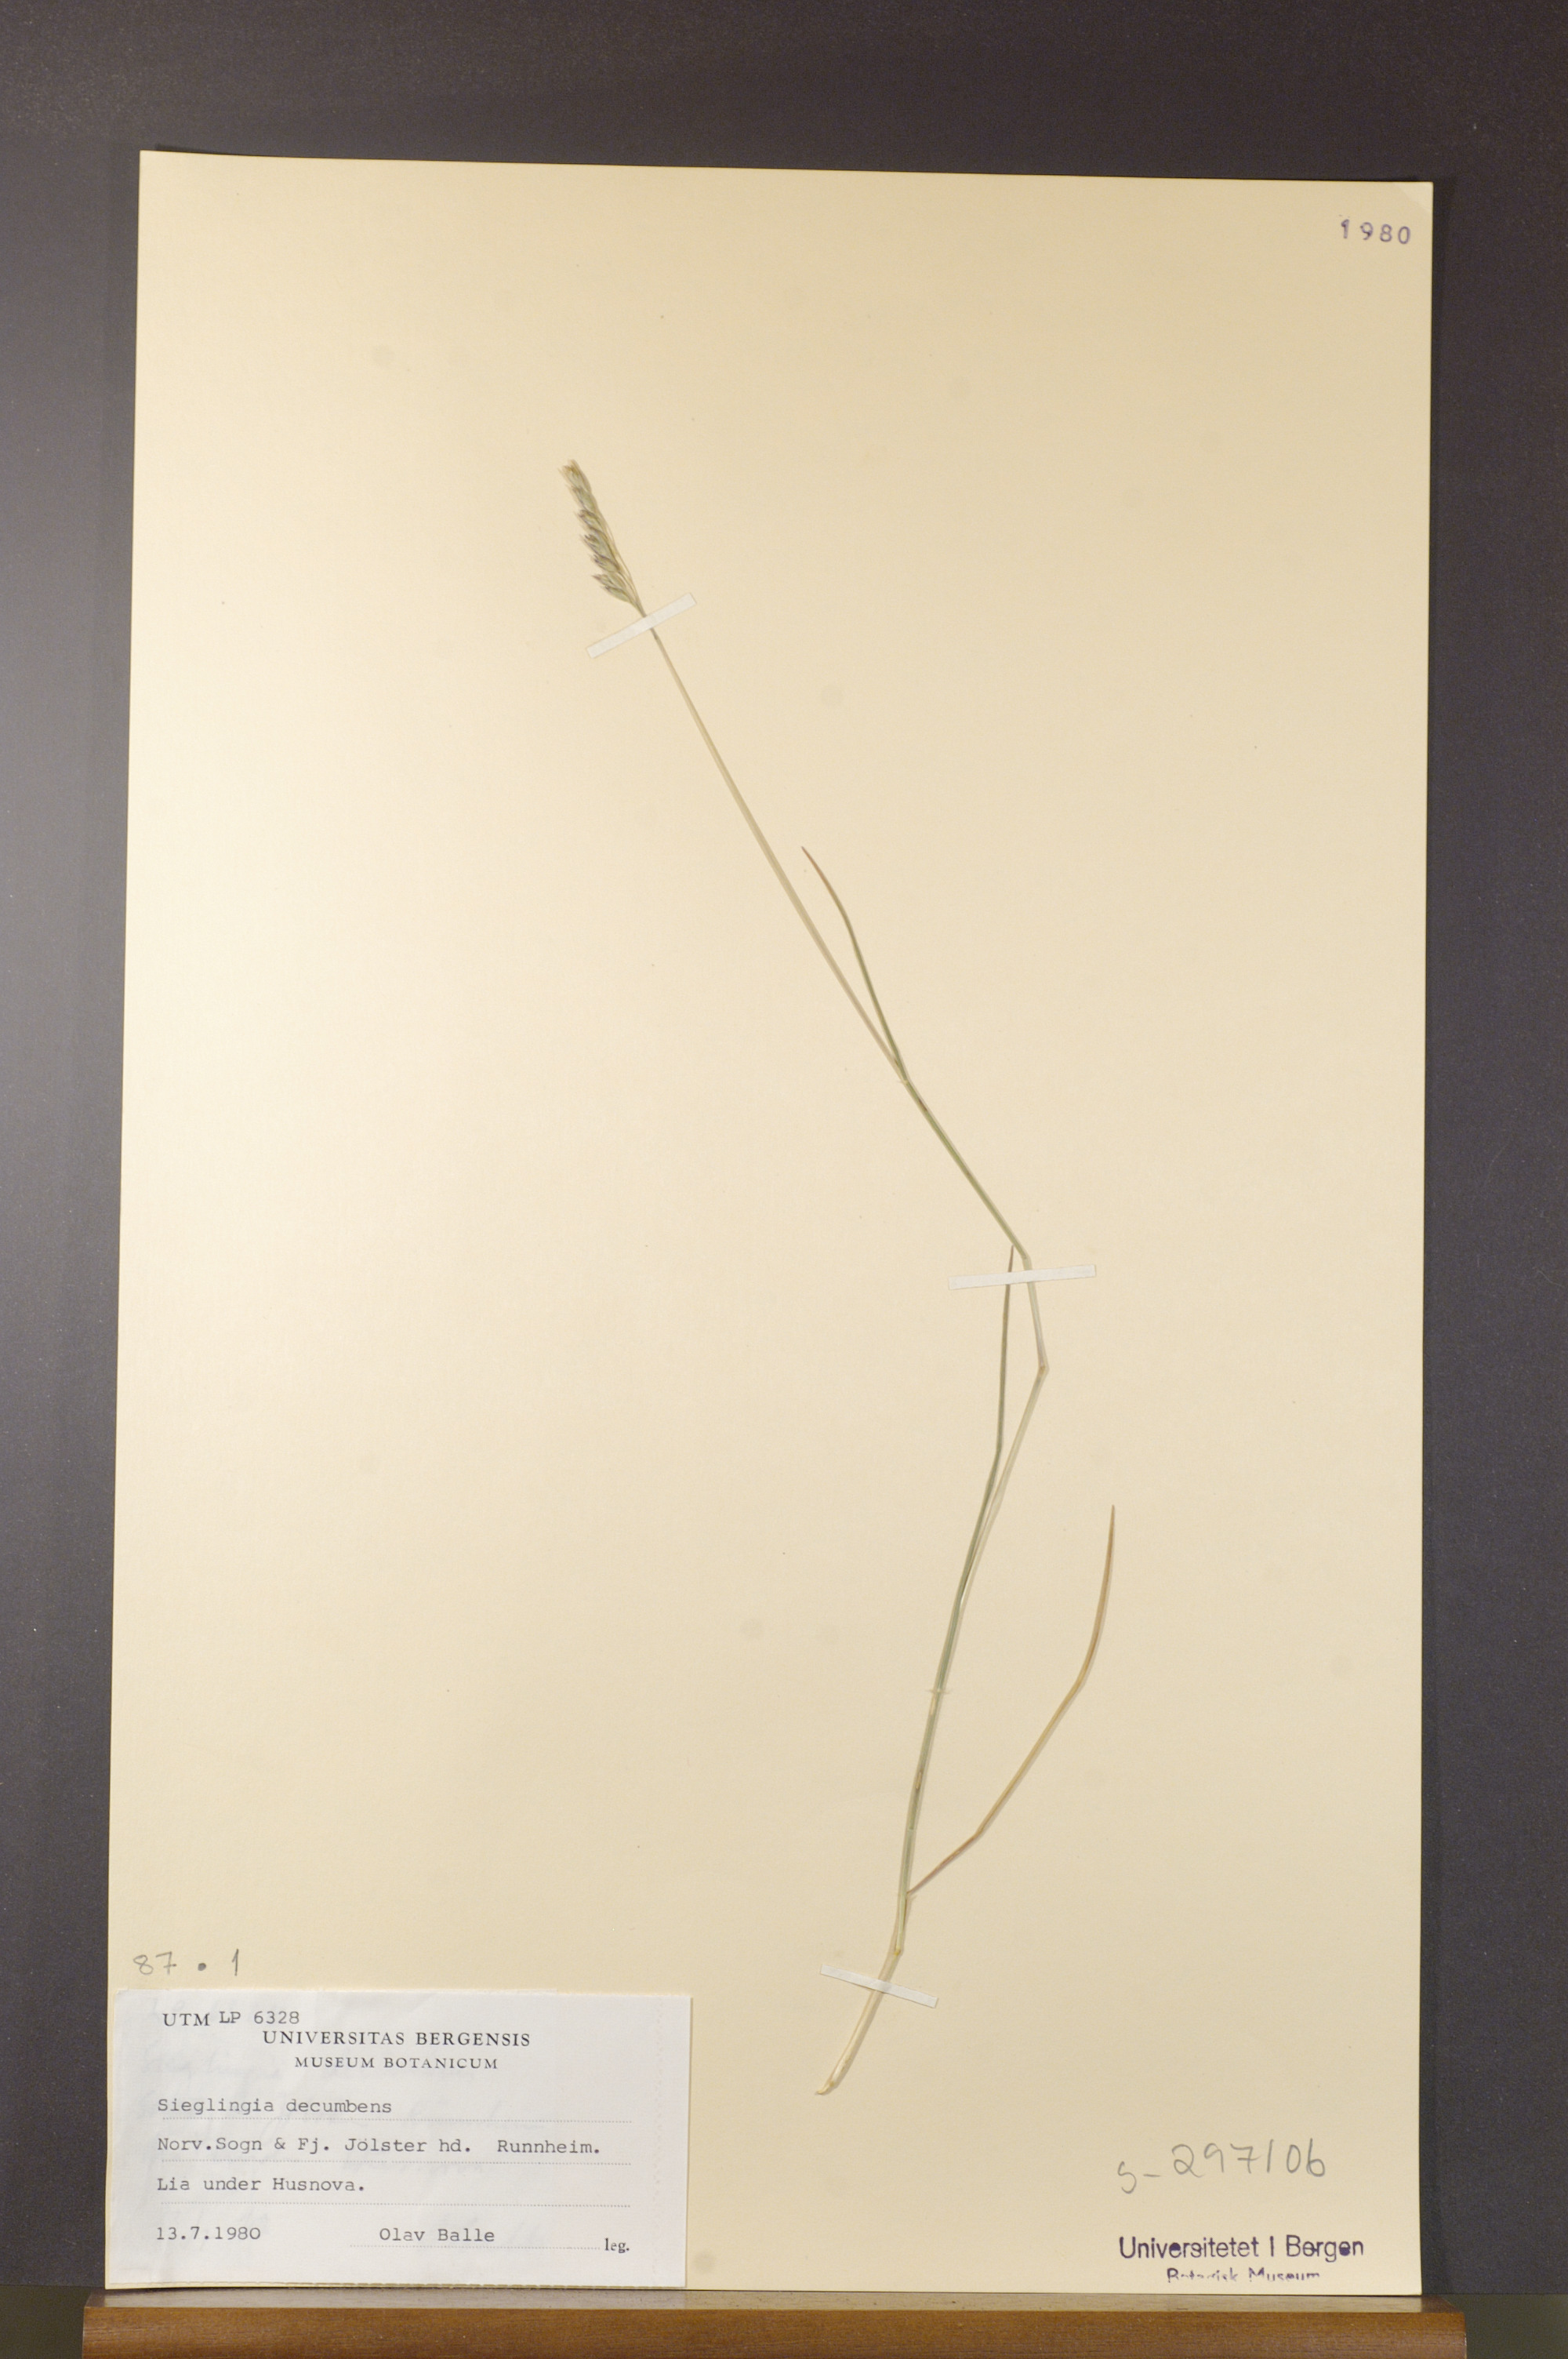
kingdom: Plantae
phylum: Tracheophyta
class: Liliopsida
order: Poales
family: Poaceae
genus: Danthonia
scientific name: Danthonia decumbens
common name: Common heathgrass
